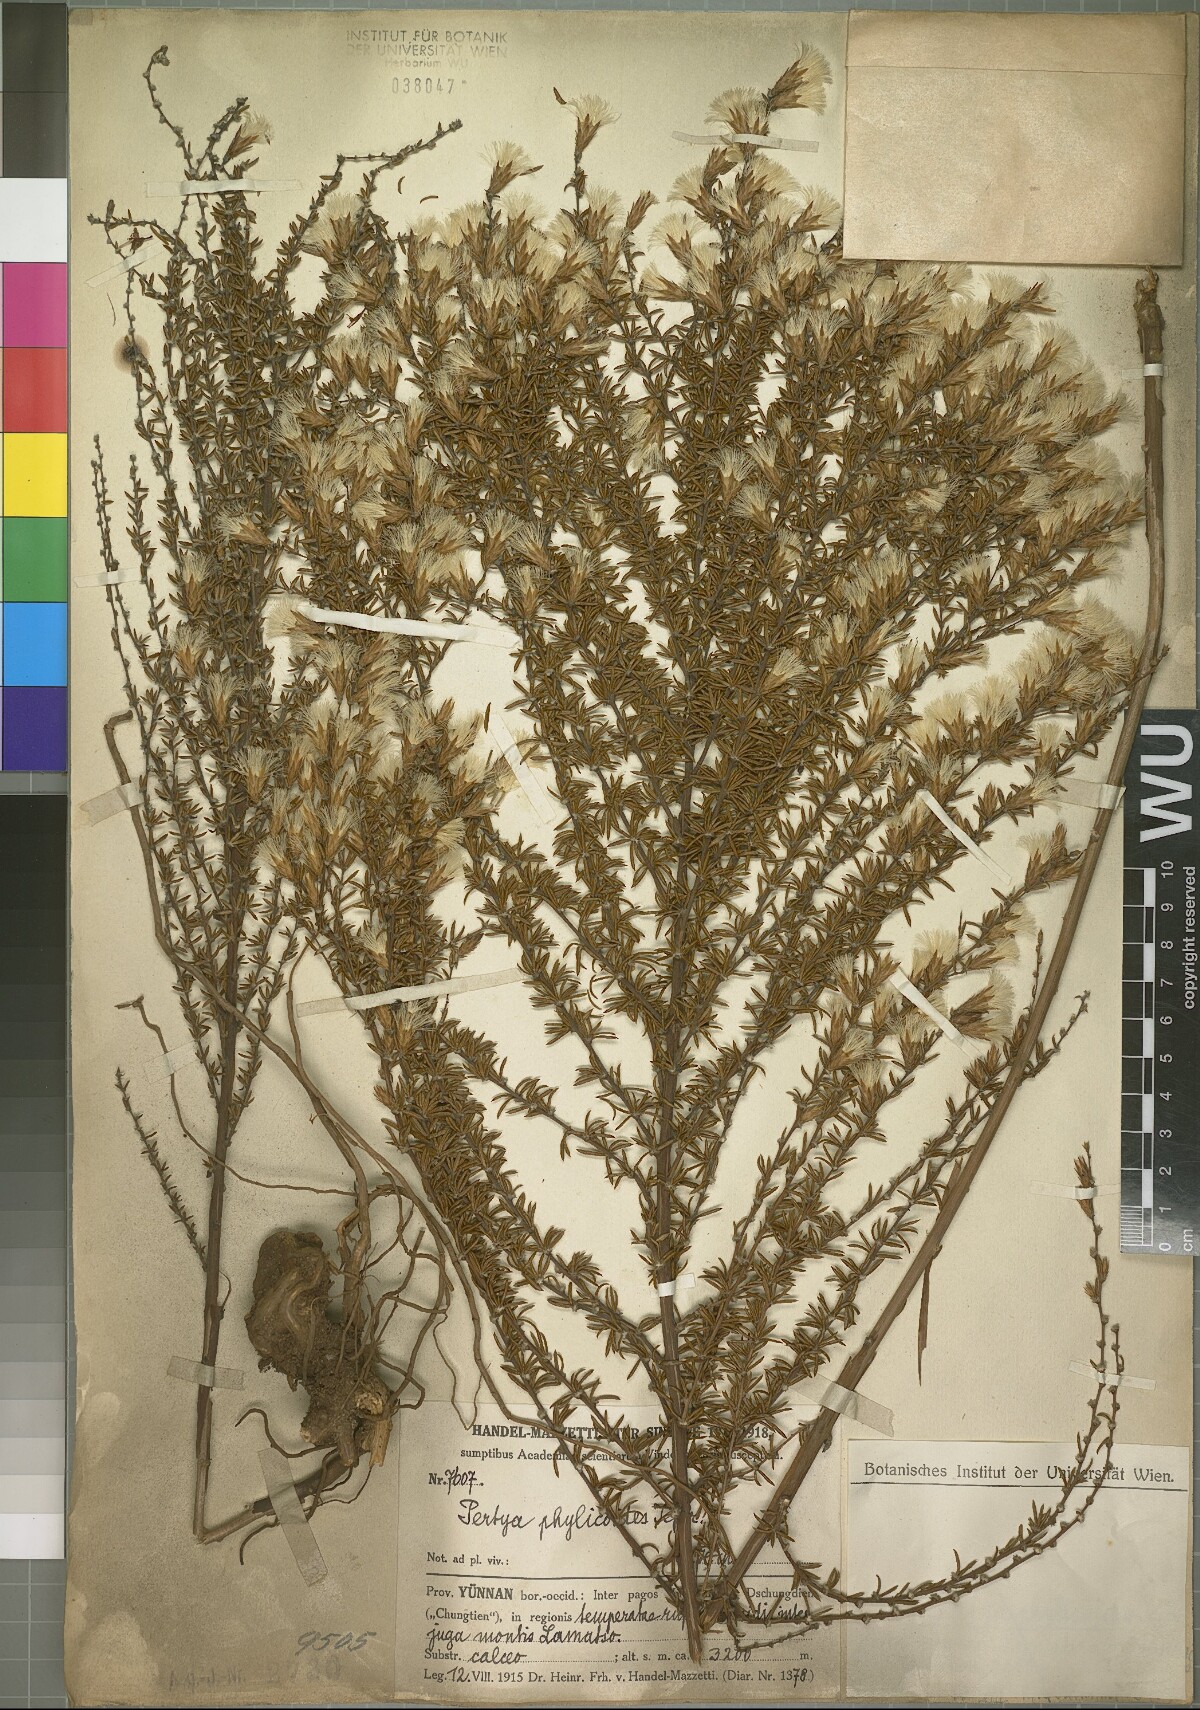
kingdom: Plantae
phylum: Tracheophyta
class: Magnoliopsida
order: Asterales
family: Asteraceae
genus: Pertya
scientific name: Pertya phylicoides
